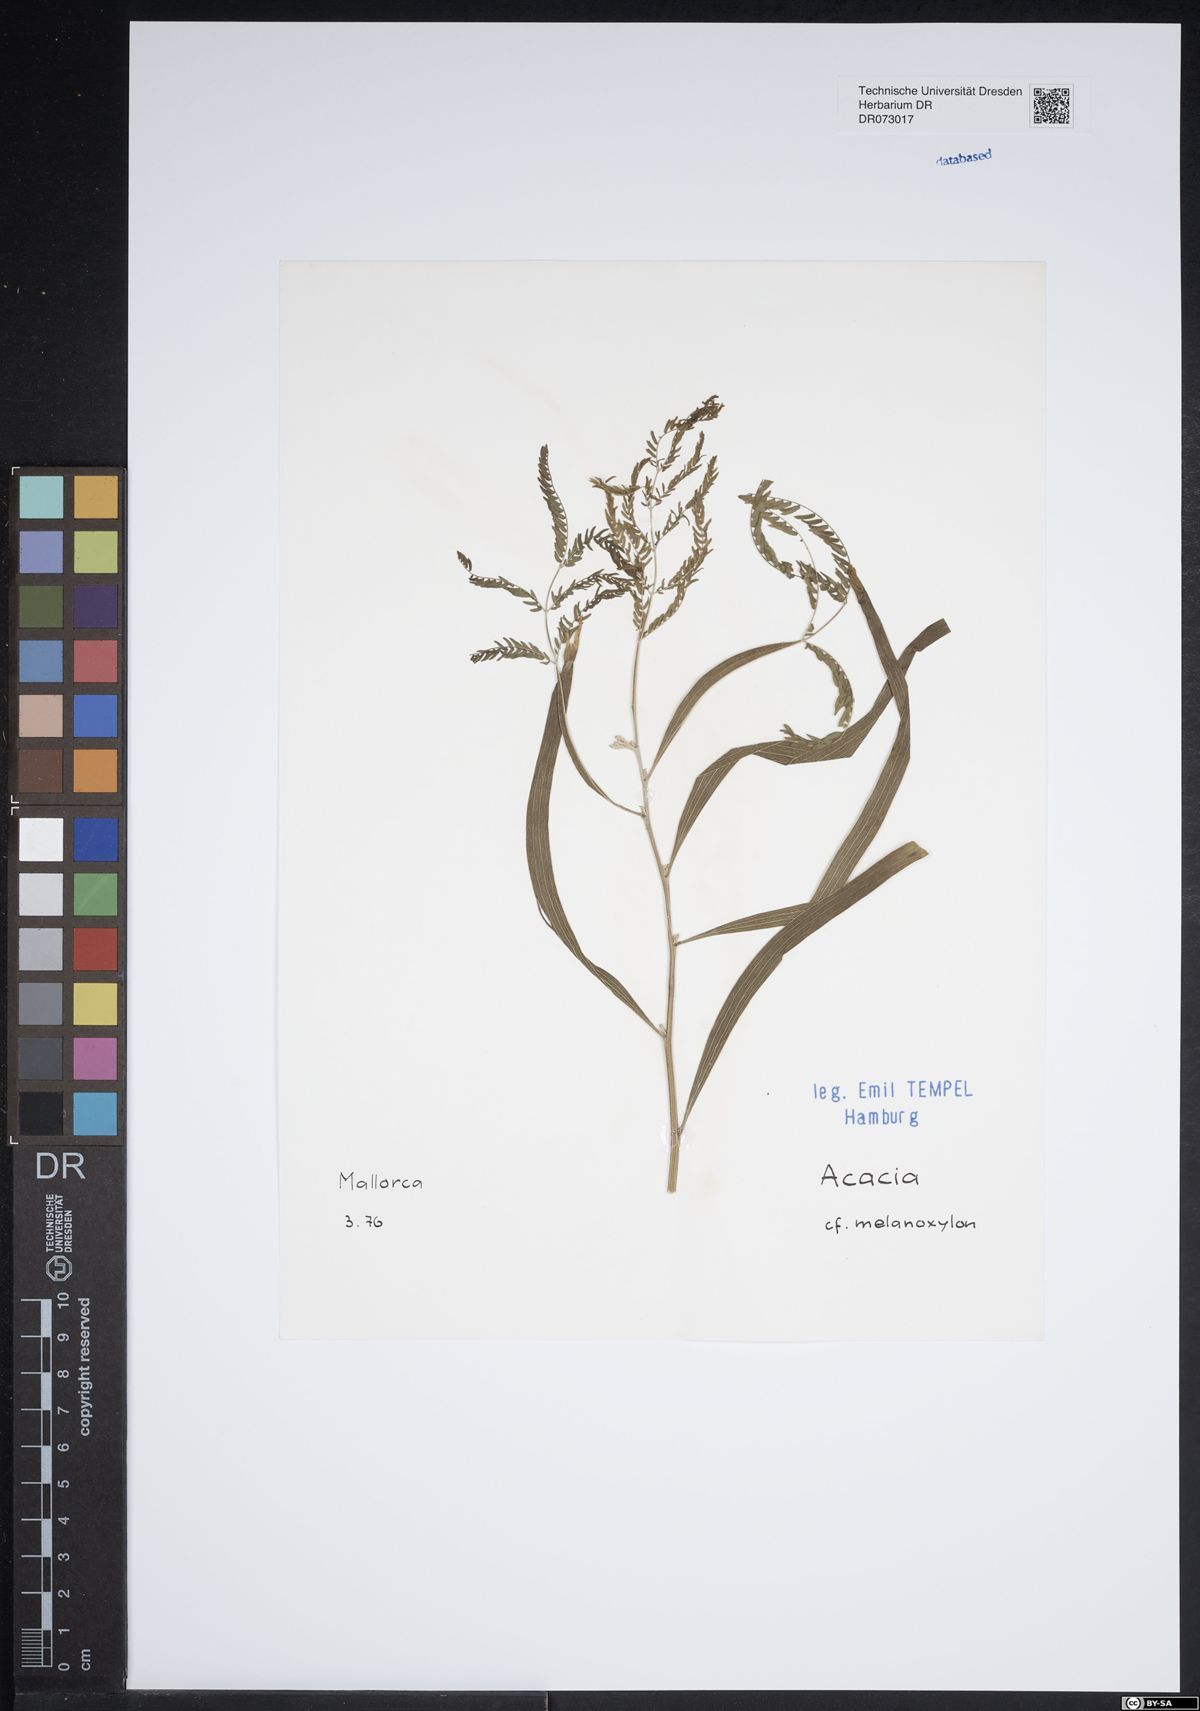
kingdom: Plantae
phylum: Tracheophyta
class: Magnoliopsida
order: Fabales
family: Fabaceae
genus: Acacia
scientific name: Acacia melanoxylon
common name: Blackwood
